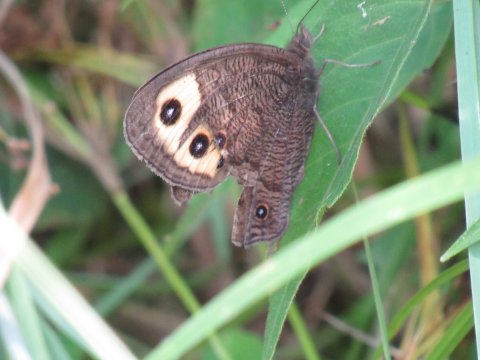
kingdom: Animalia
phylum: Arthropoda
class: Insecta
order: Lepidoptera
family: Nymphalidae
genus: Cercyonis
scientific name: Cercyonis pegala
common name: Common Wood-Nymph
